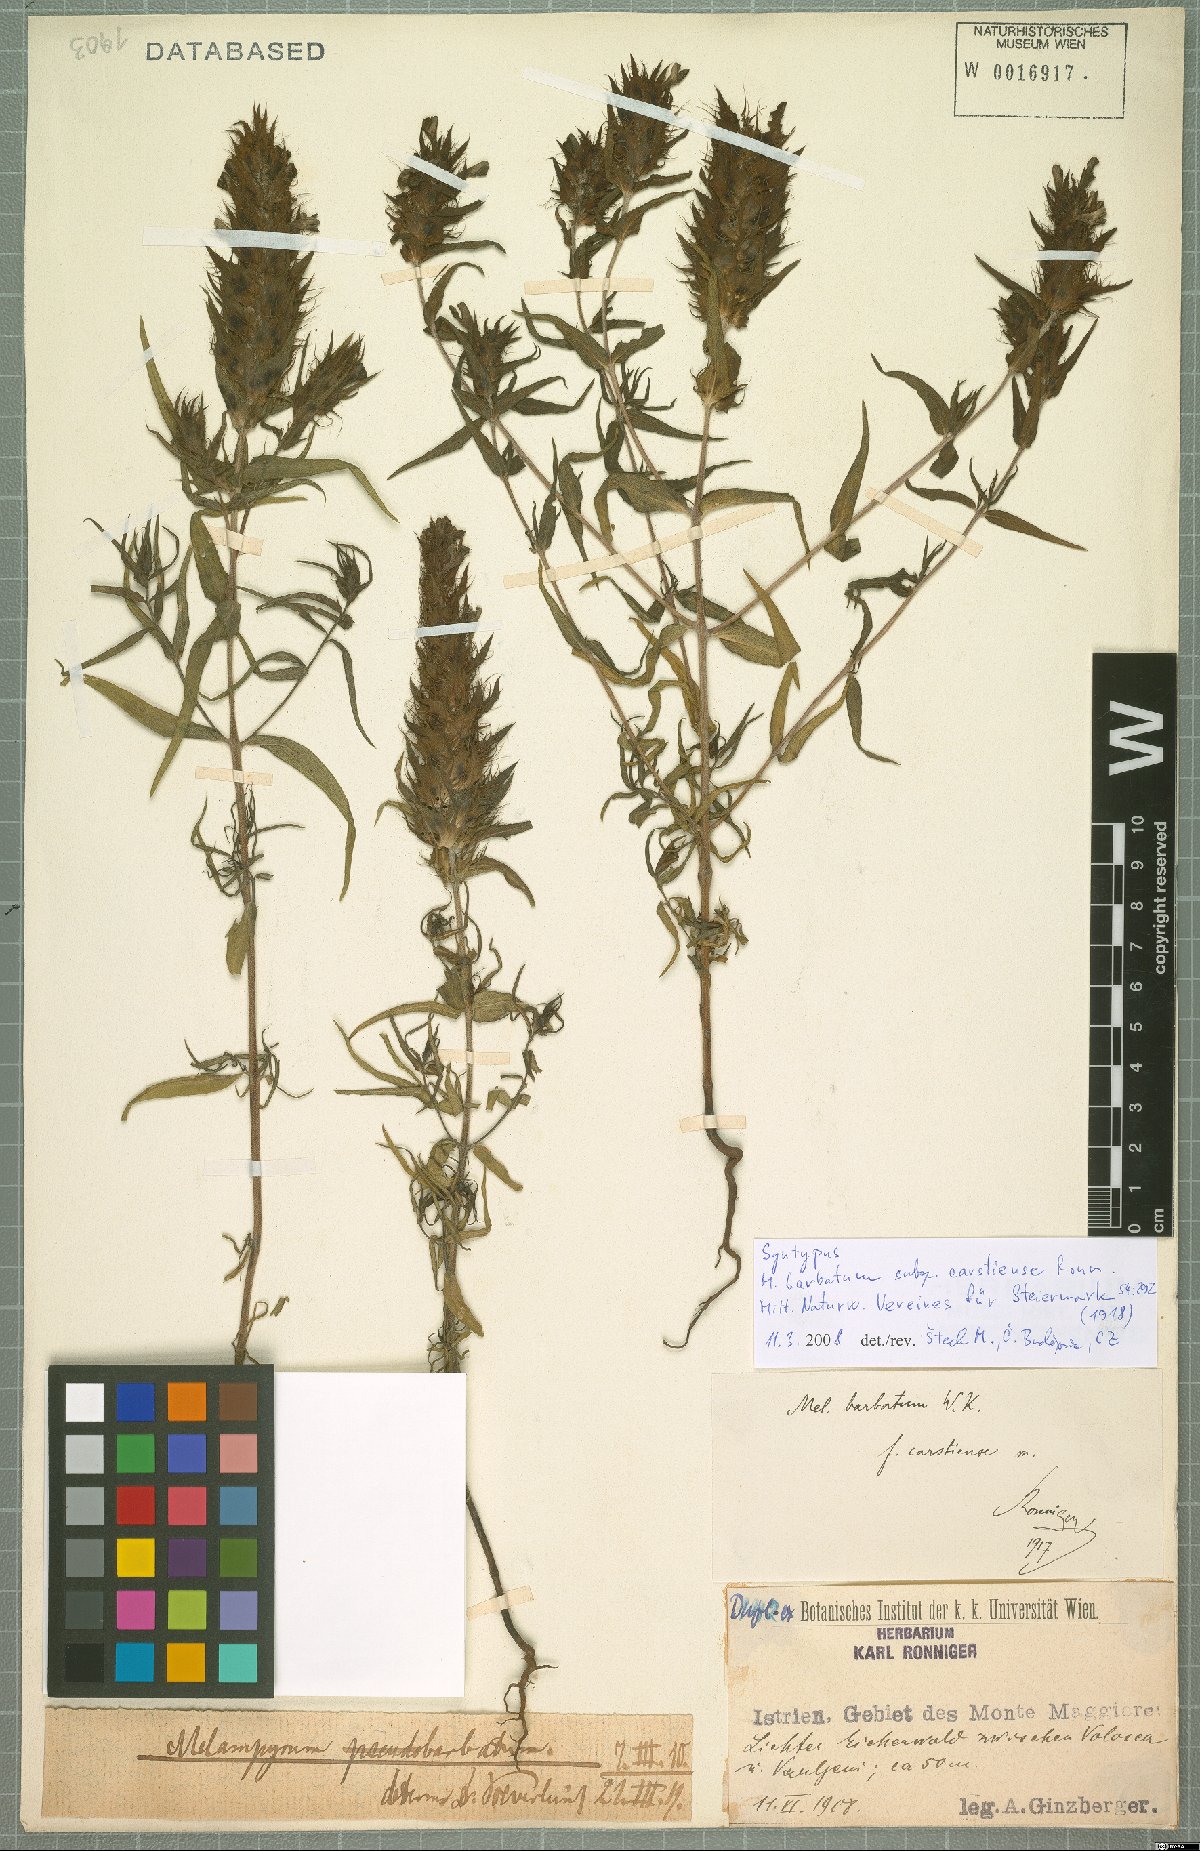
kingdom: Plantae
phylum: Tracheophyta
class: Magnoliopsida
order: Lamiales
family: Orobanchaceae
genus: Melampyrum
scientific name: Melampyrum barbatum
